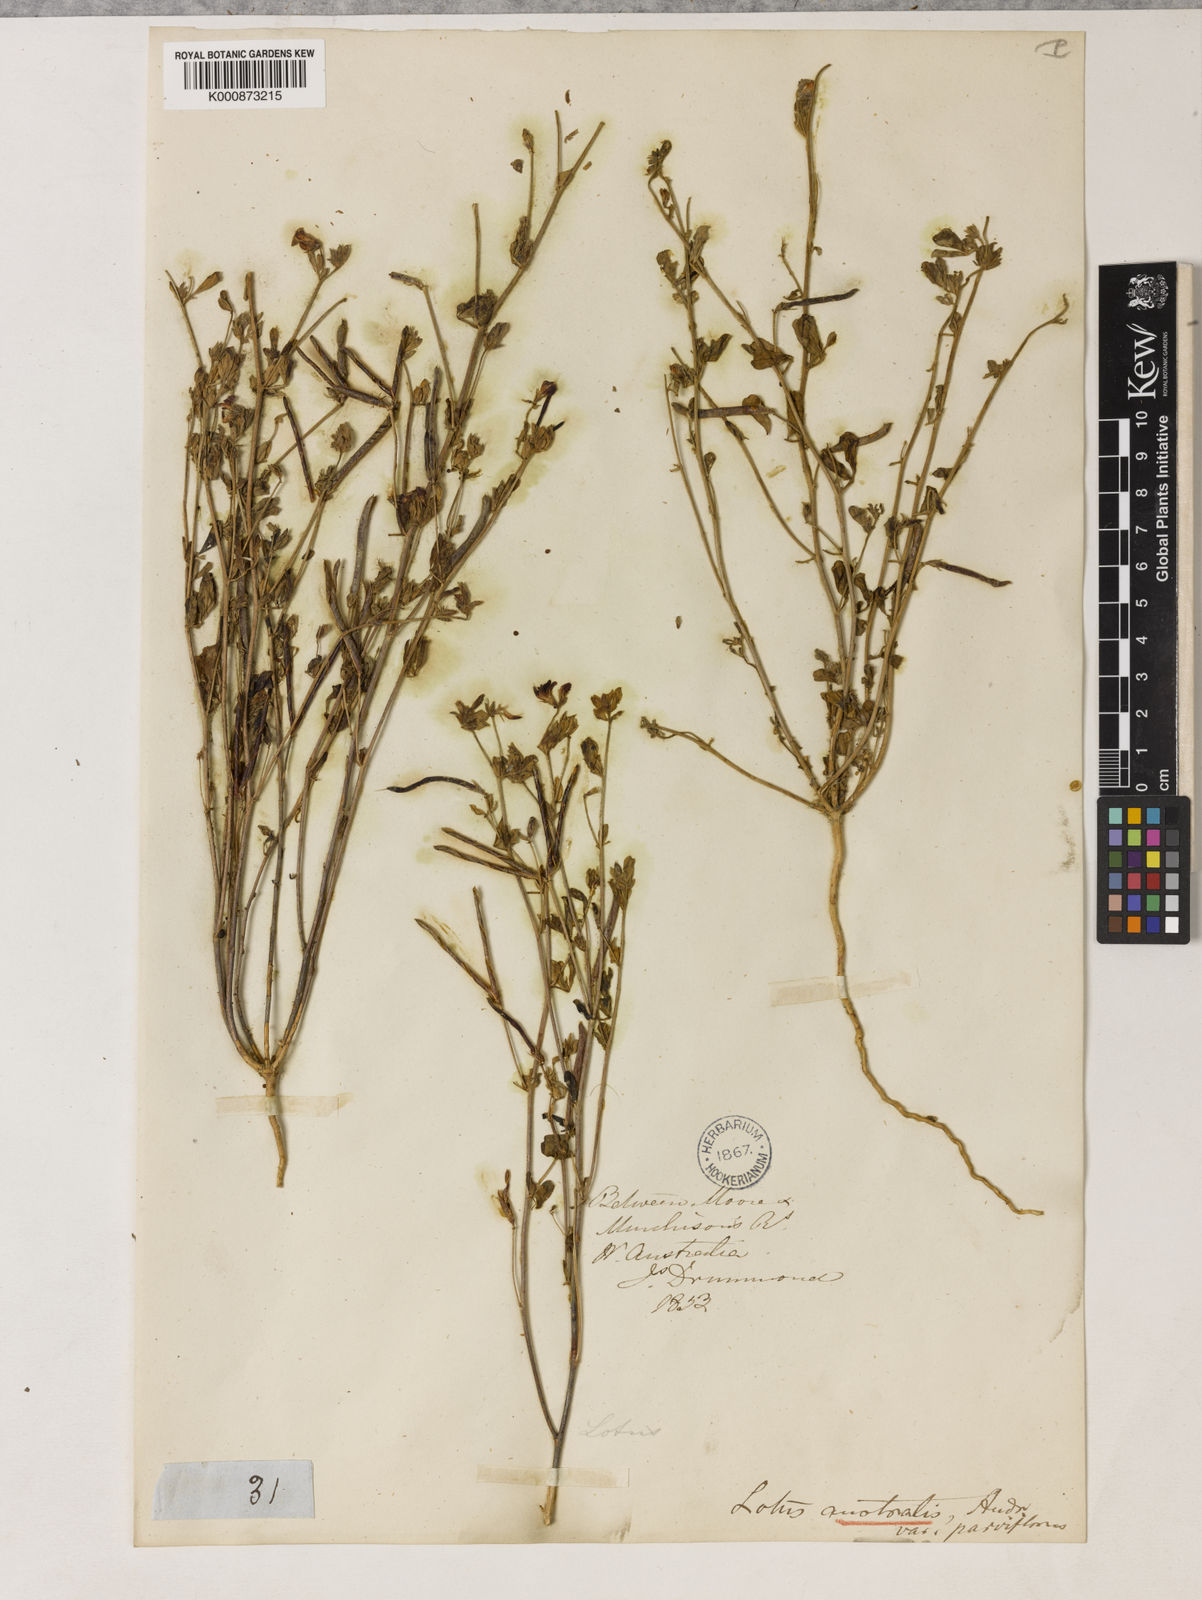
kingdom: Plantae
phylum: Tracheophyta
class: Magnoliopsida
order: Fabales
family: Fabaceae
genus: Lotus
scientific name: Lotus cruentus
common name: Red bird's-foot trefoil
